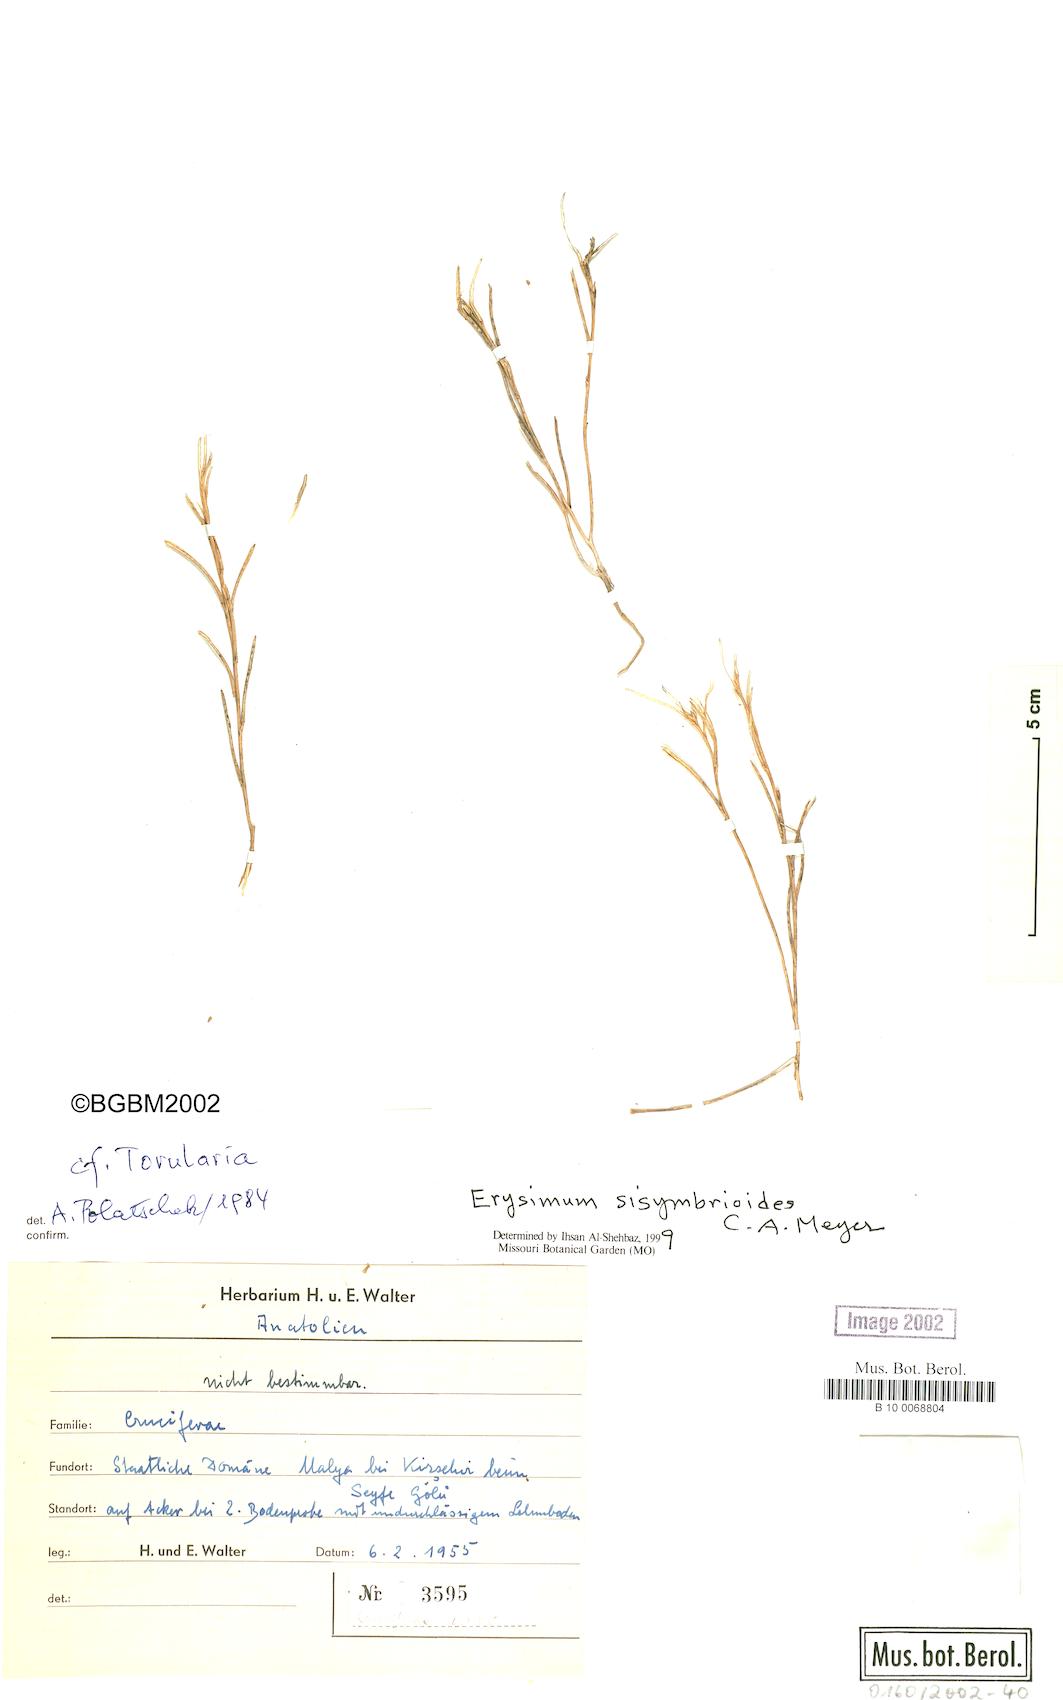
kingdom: Plantae
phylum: Tracheophyta
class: Magnoliopsida
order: Brassicales
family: Brassicaceae
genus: Erysimum
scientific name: Erysimum sisymbrioides
